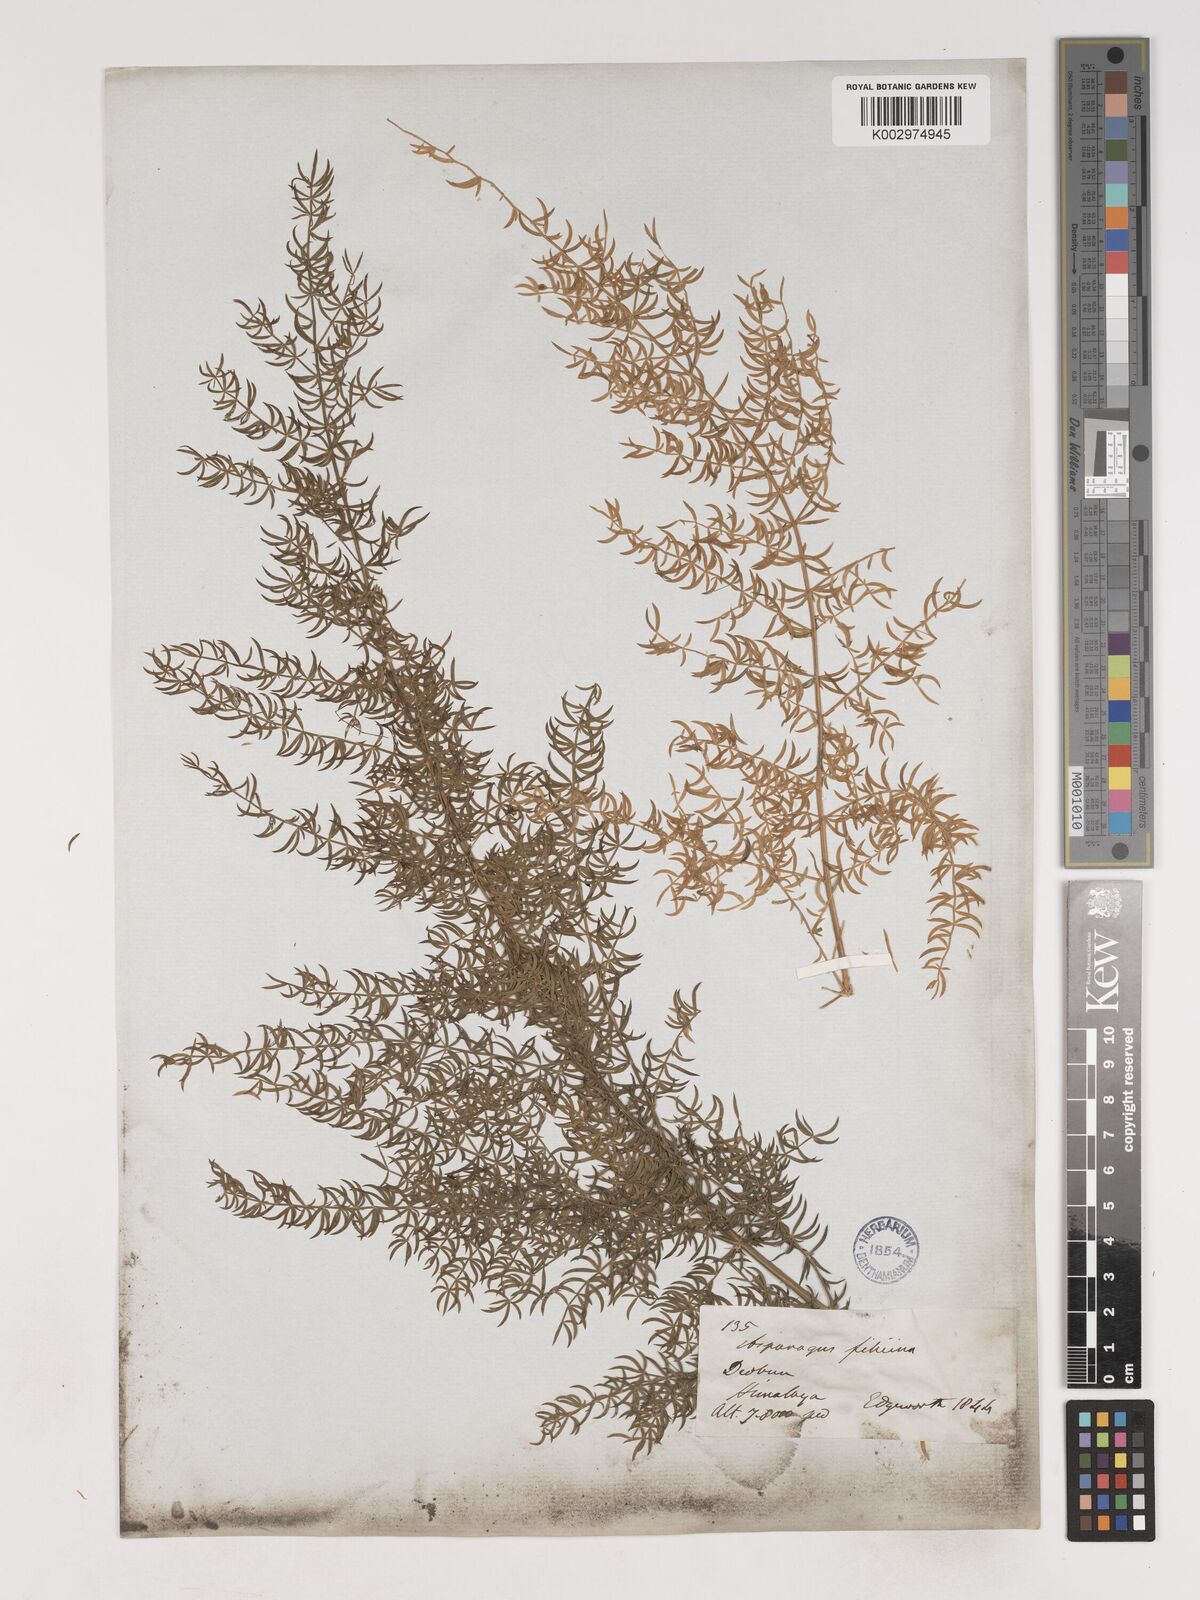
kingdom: Plantae
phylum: Tracheophyta
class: Liliopsida
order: Asparagales
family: Asparagaceae
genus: Asparagus
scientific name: Asparagus filicinus
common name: Fern asparagus
